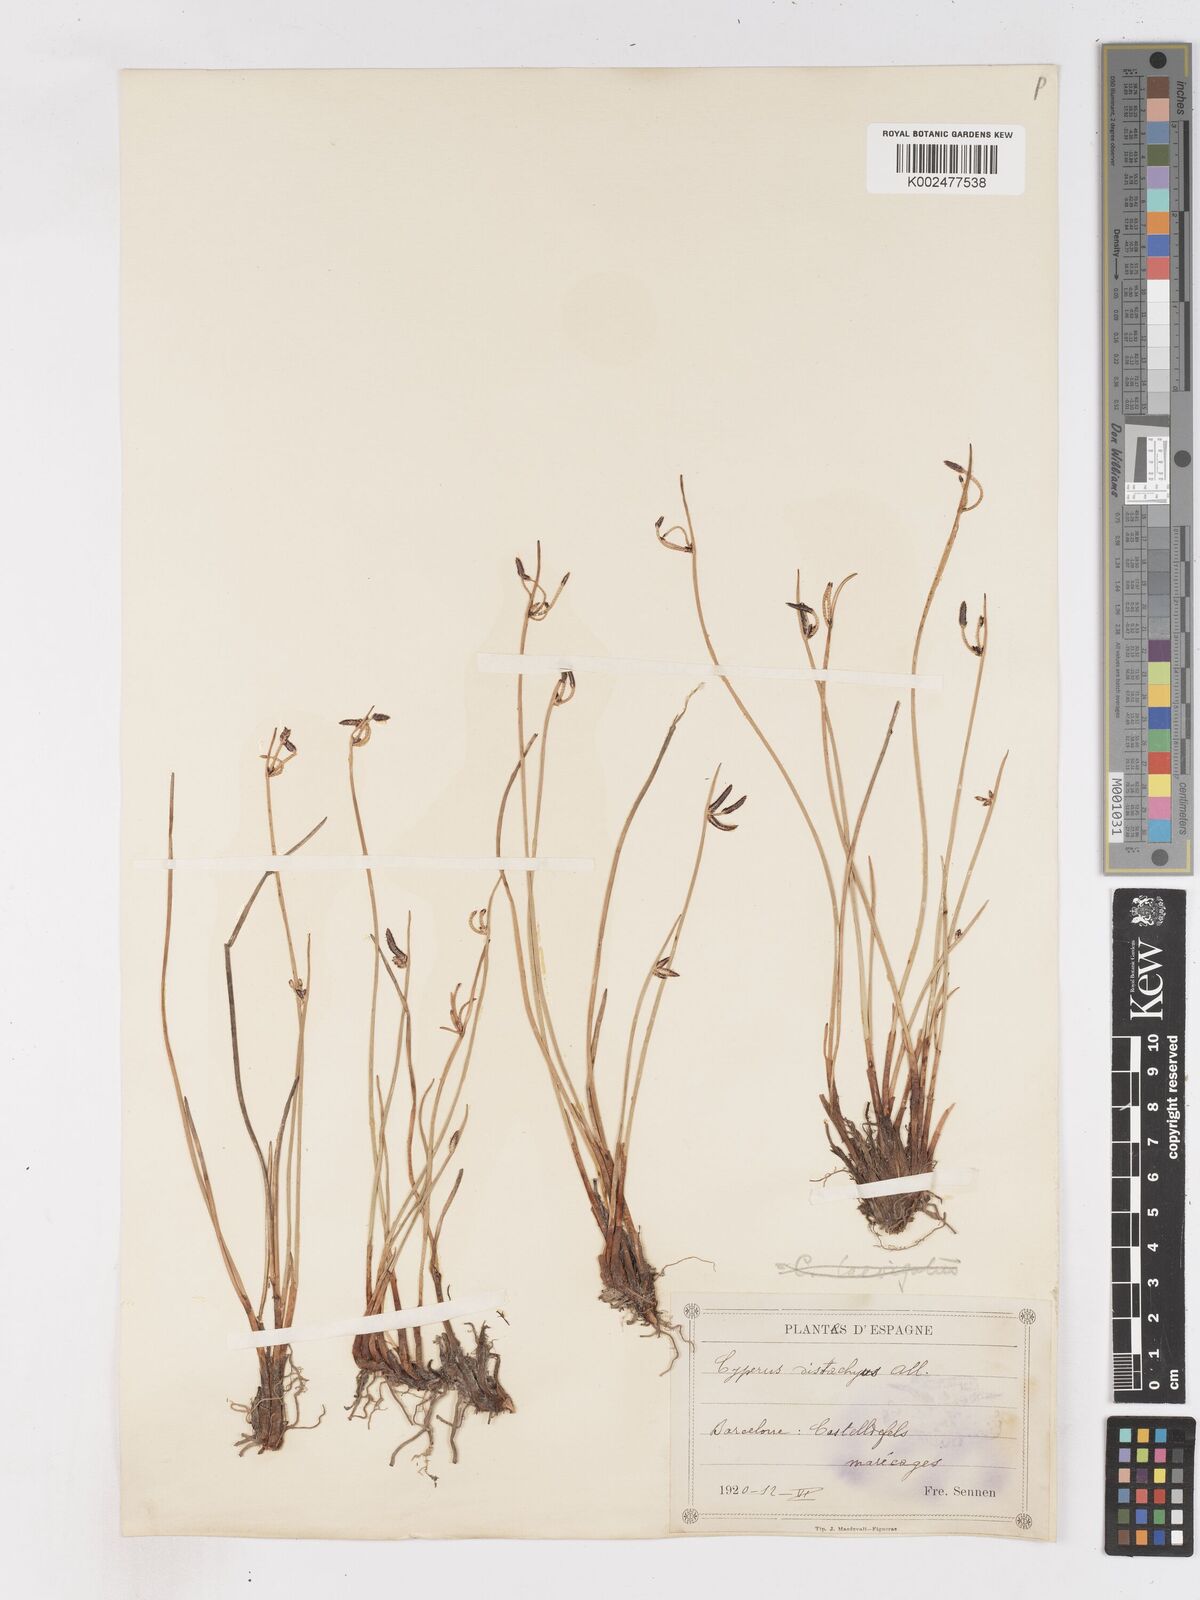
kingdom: Plantae
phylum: Tracheophyta
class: Liliopsida
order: Poales
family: Cyperaceae
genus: Cyperus
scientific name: Cyperus laevigatus
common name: Smooth flat sedge
